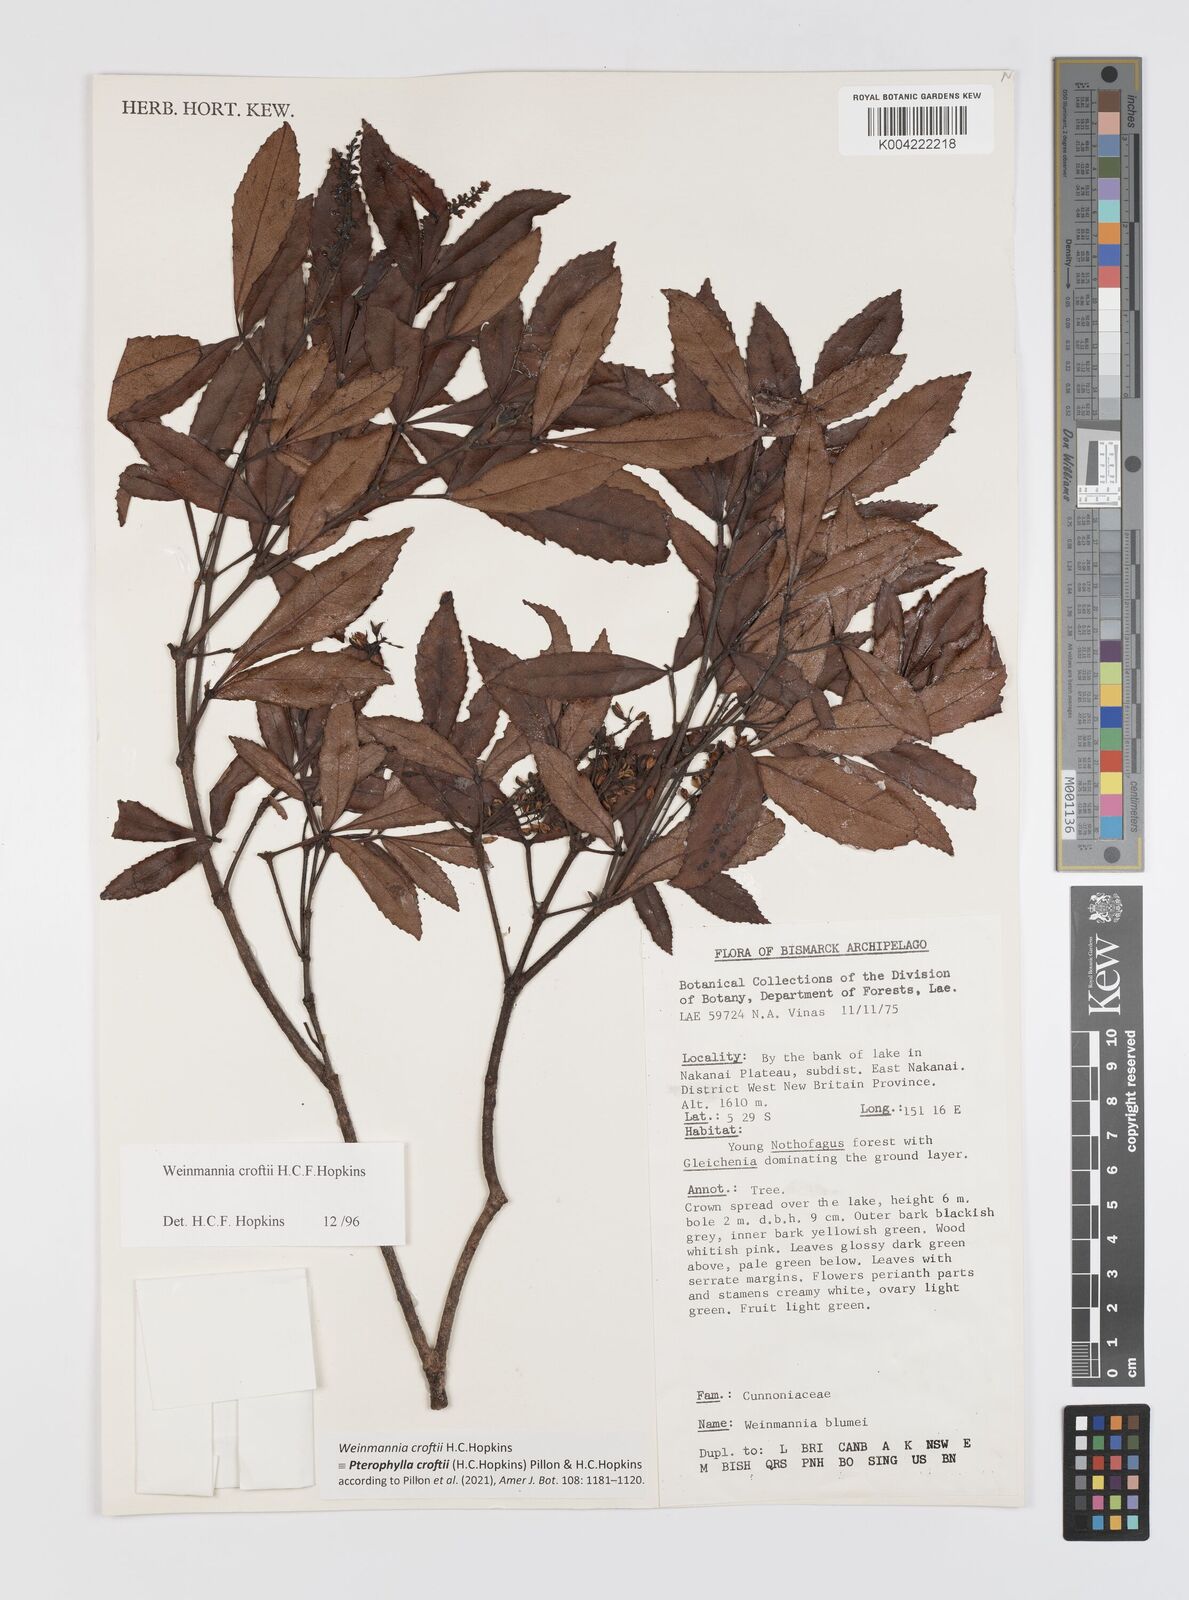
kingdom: Plantae
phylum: Tracheophyta
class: Magnoliopsida
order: Oxalidales
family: Cunoniaceae
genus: Pterophylla
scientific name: Pterophylla croftii
